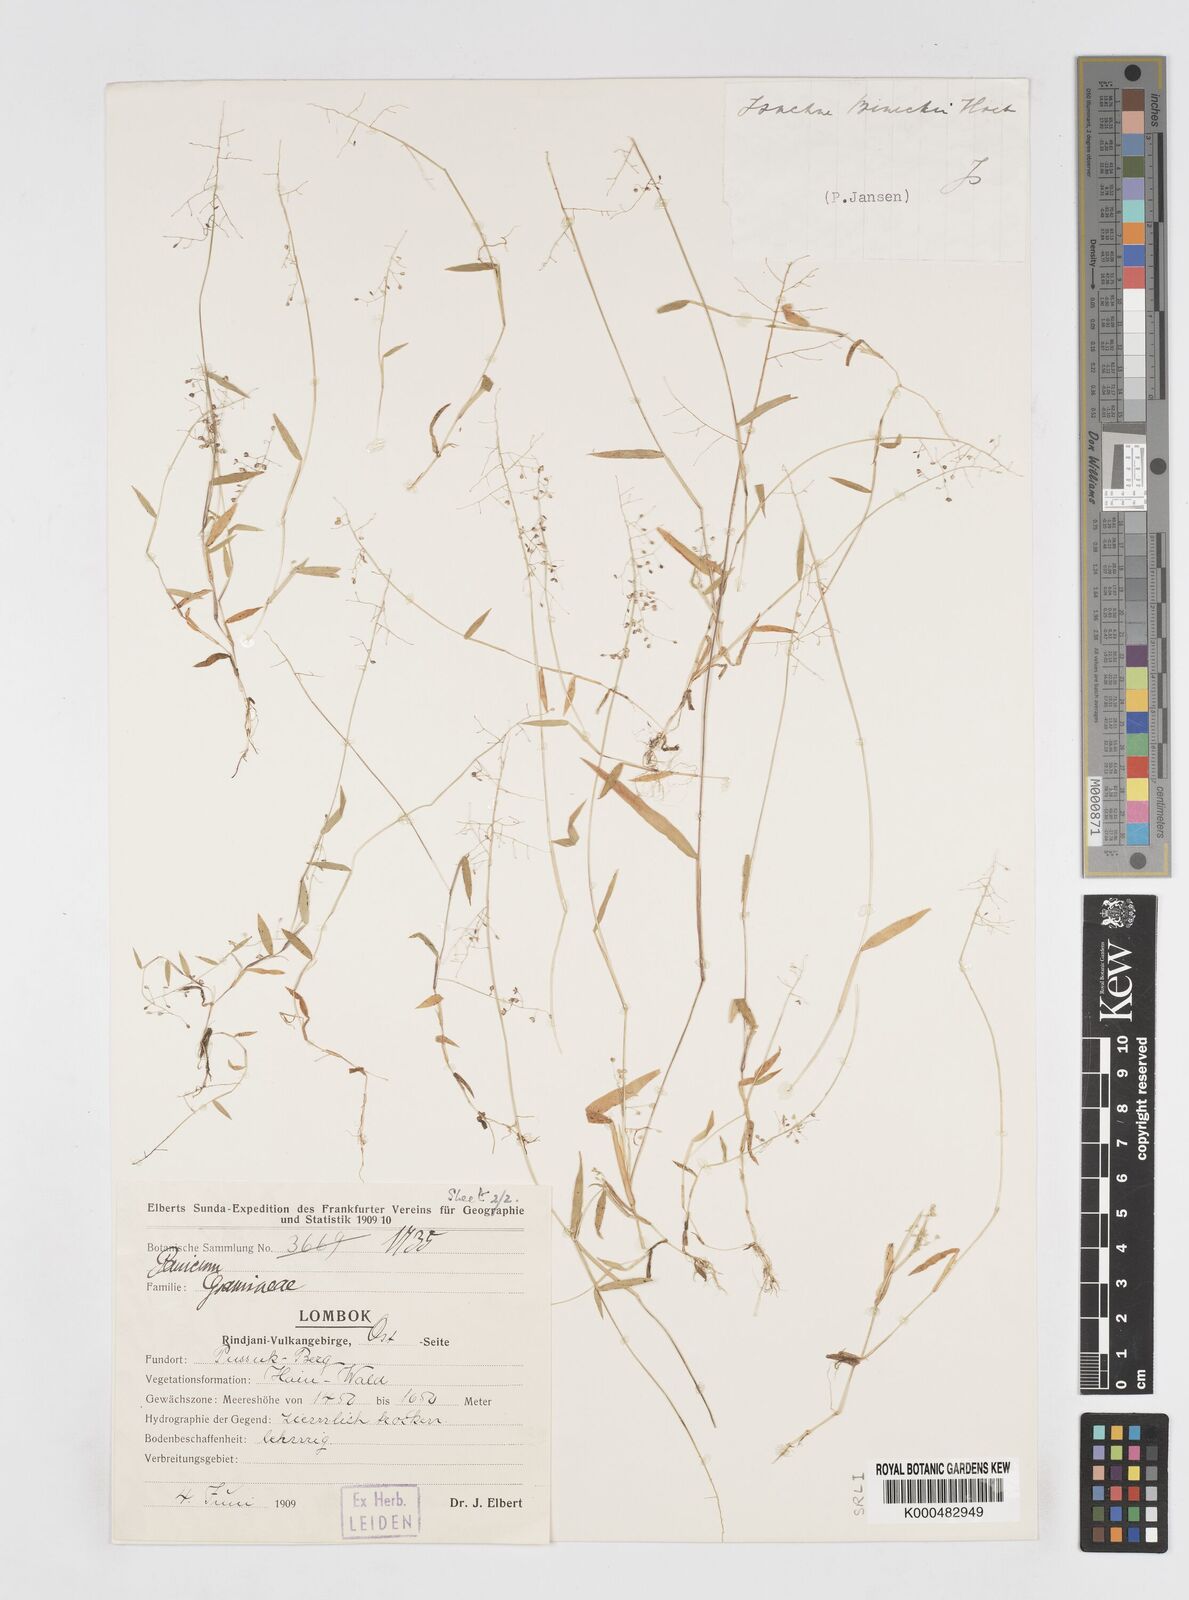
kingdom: Plantae
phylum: Tracheophyta
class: Liliopsida
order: Poales
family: Poaceae
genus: Isachne
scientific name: Isachne clarkei
